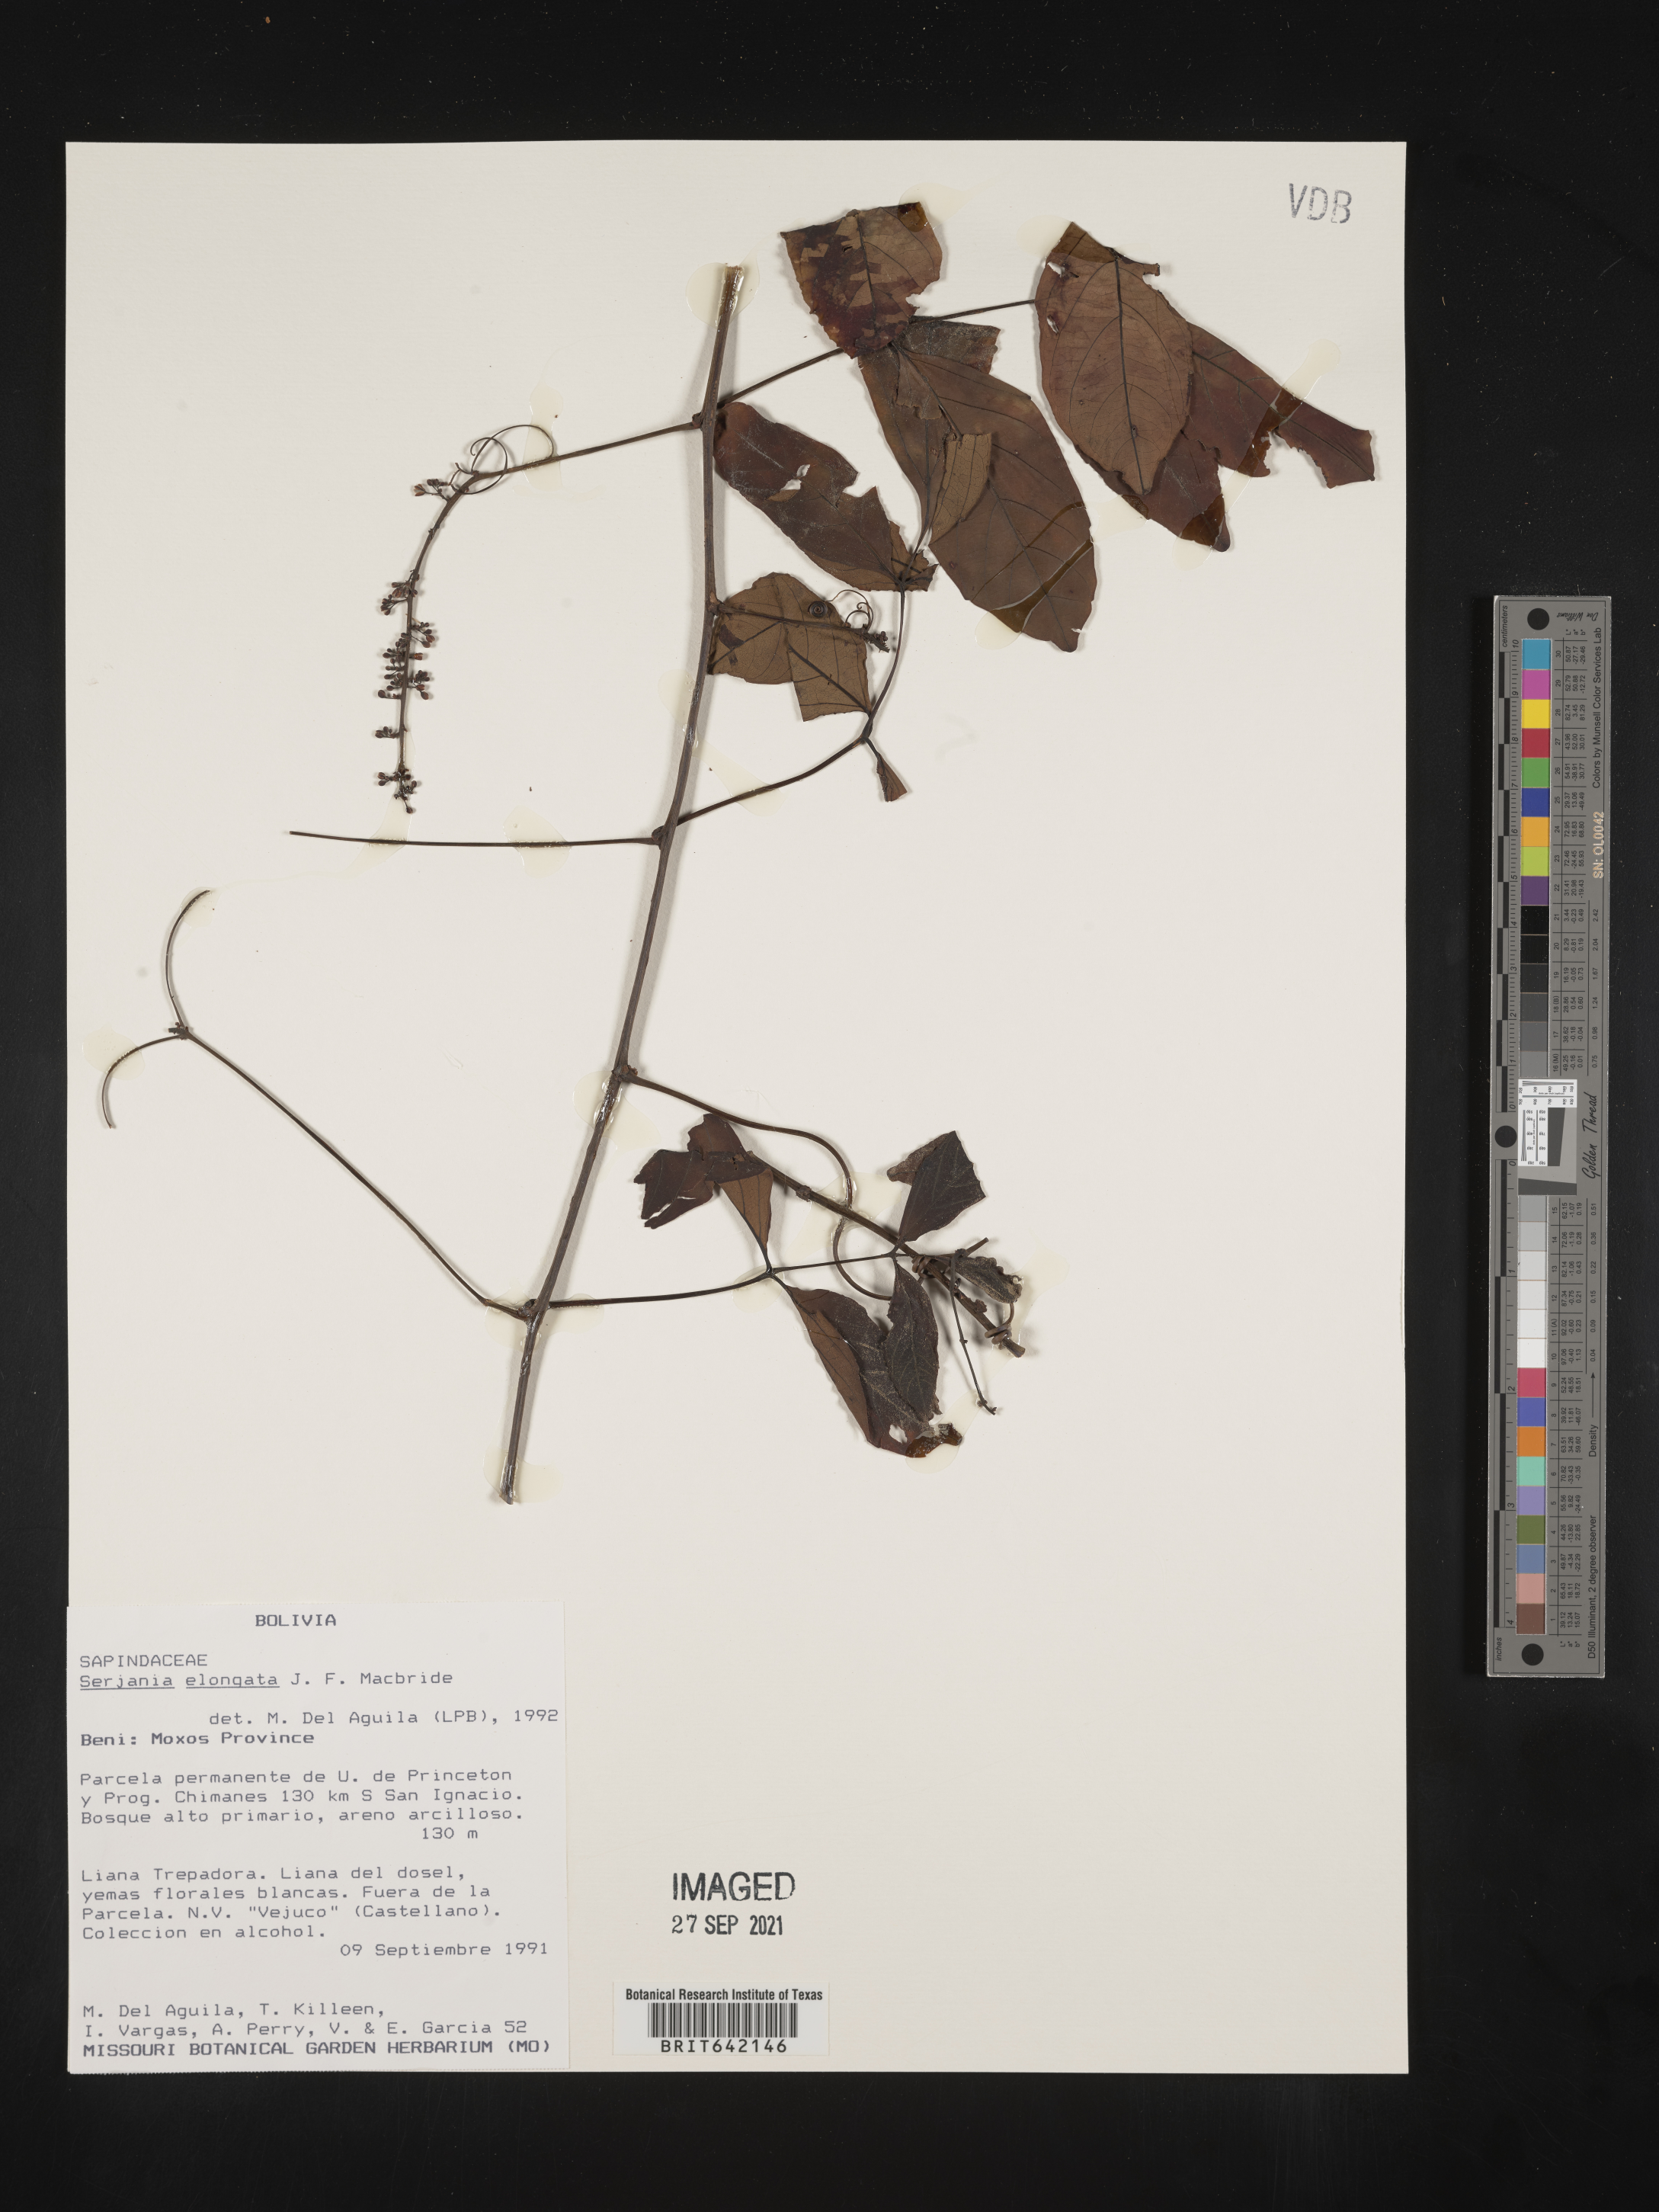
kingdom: Plantae
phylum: Tracheophyta
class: Magnoliopsida
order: Sapindales
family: Sapindaceae
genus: Serjania
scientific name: Serjania
